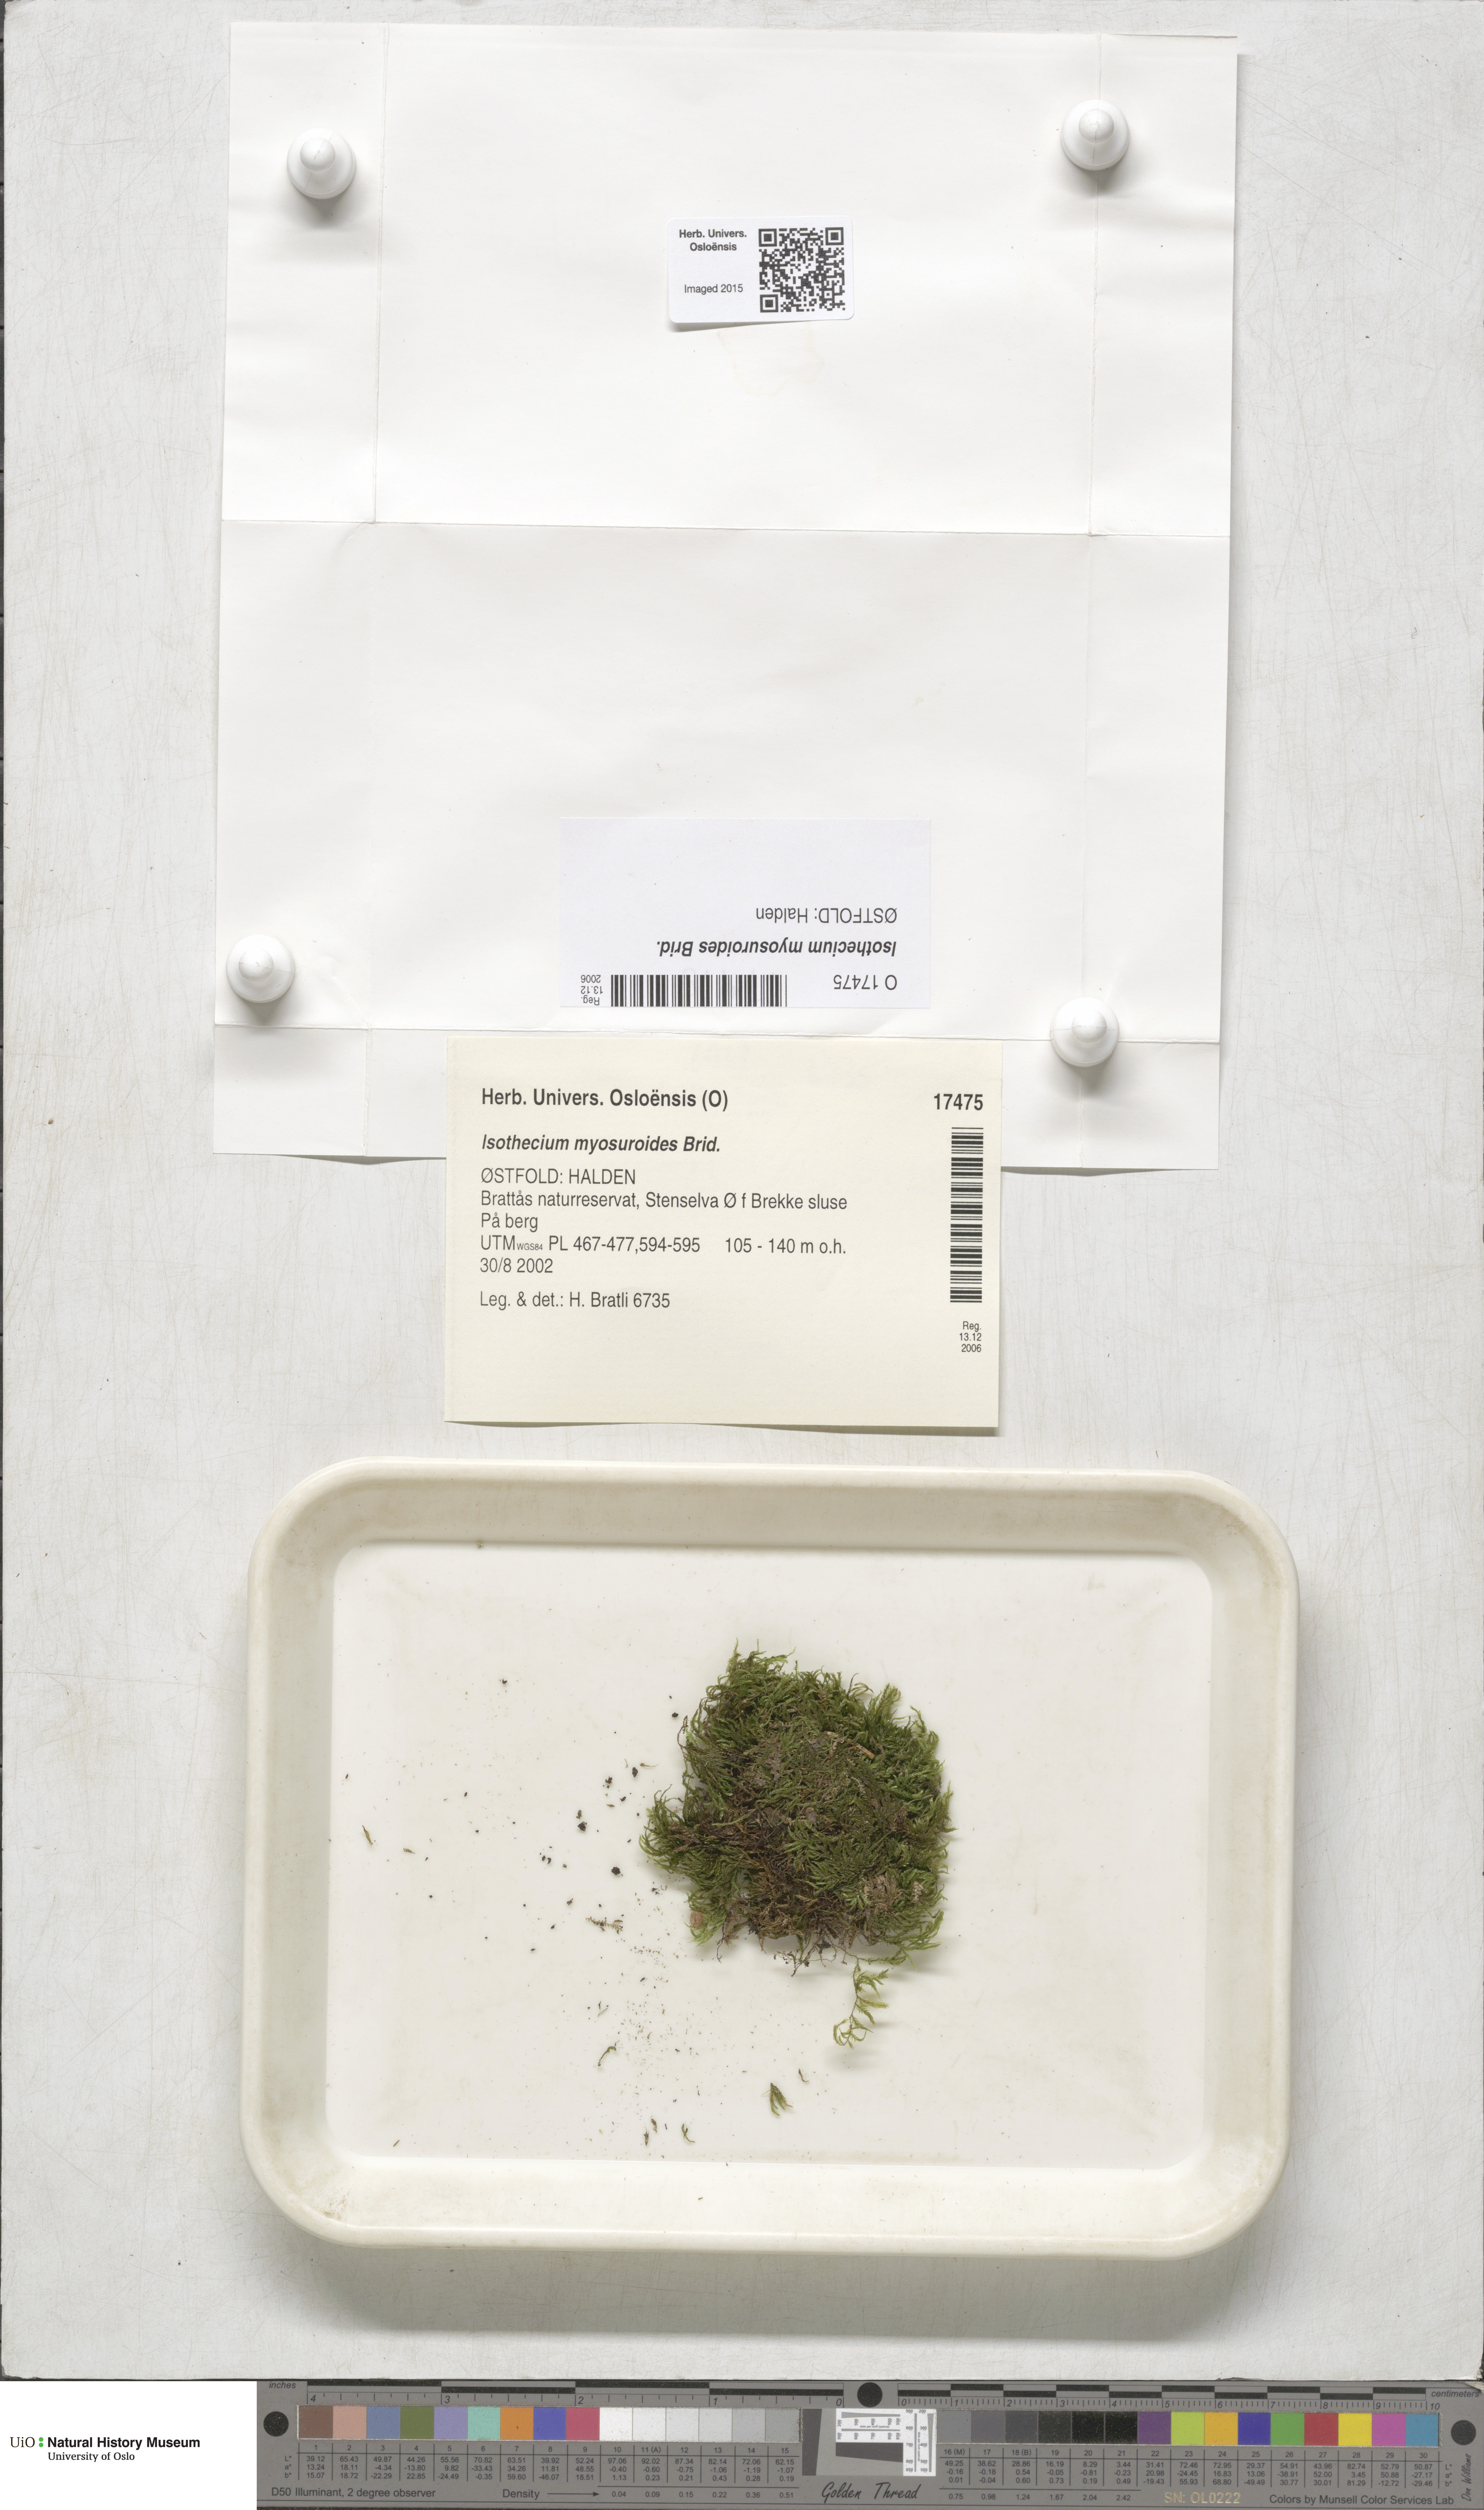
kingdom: Plantae
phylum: Bryophyta
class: Bryopsida
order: Hypnales
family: Lembophyllaceae
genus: Pseudisothecium
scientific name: Pseudisothecium myosuroides
